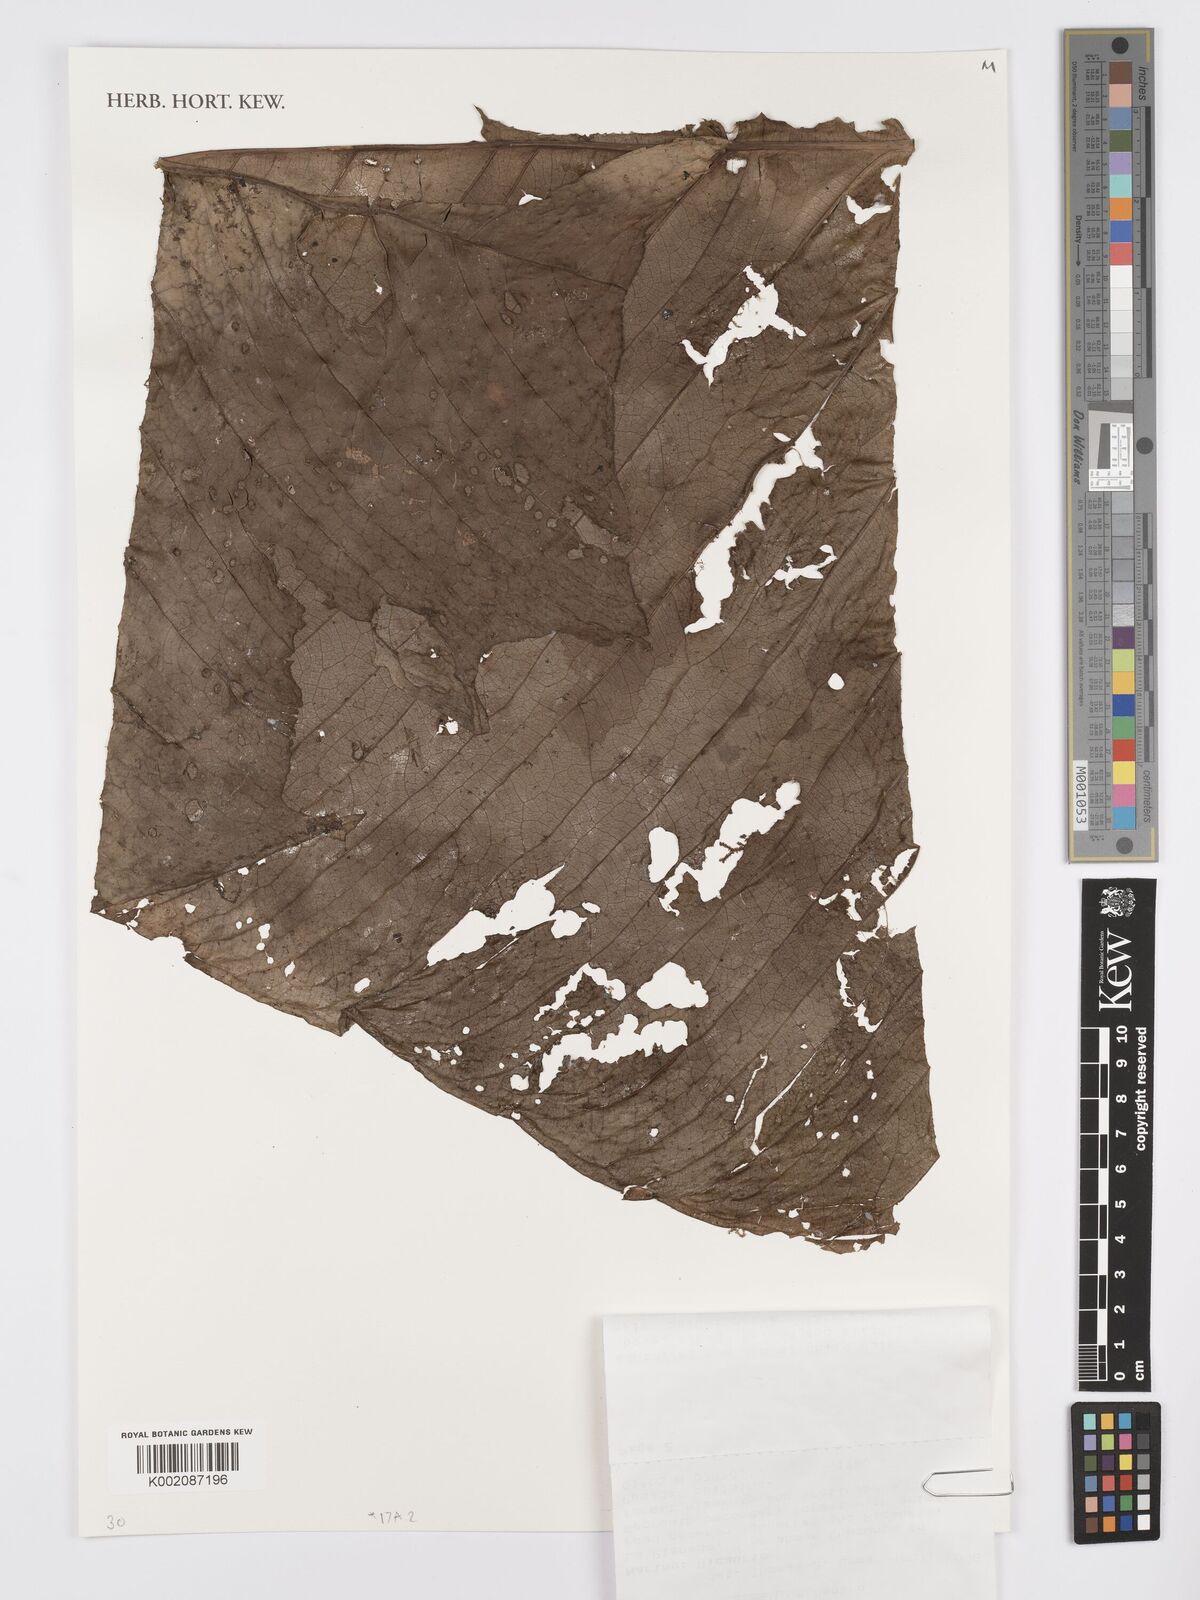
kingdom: Plantae
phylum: Tracheophyta
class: Liliopsida
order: Alismatales
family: Araceae
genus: Anthurium
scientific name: Anthurium umbraculum
